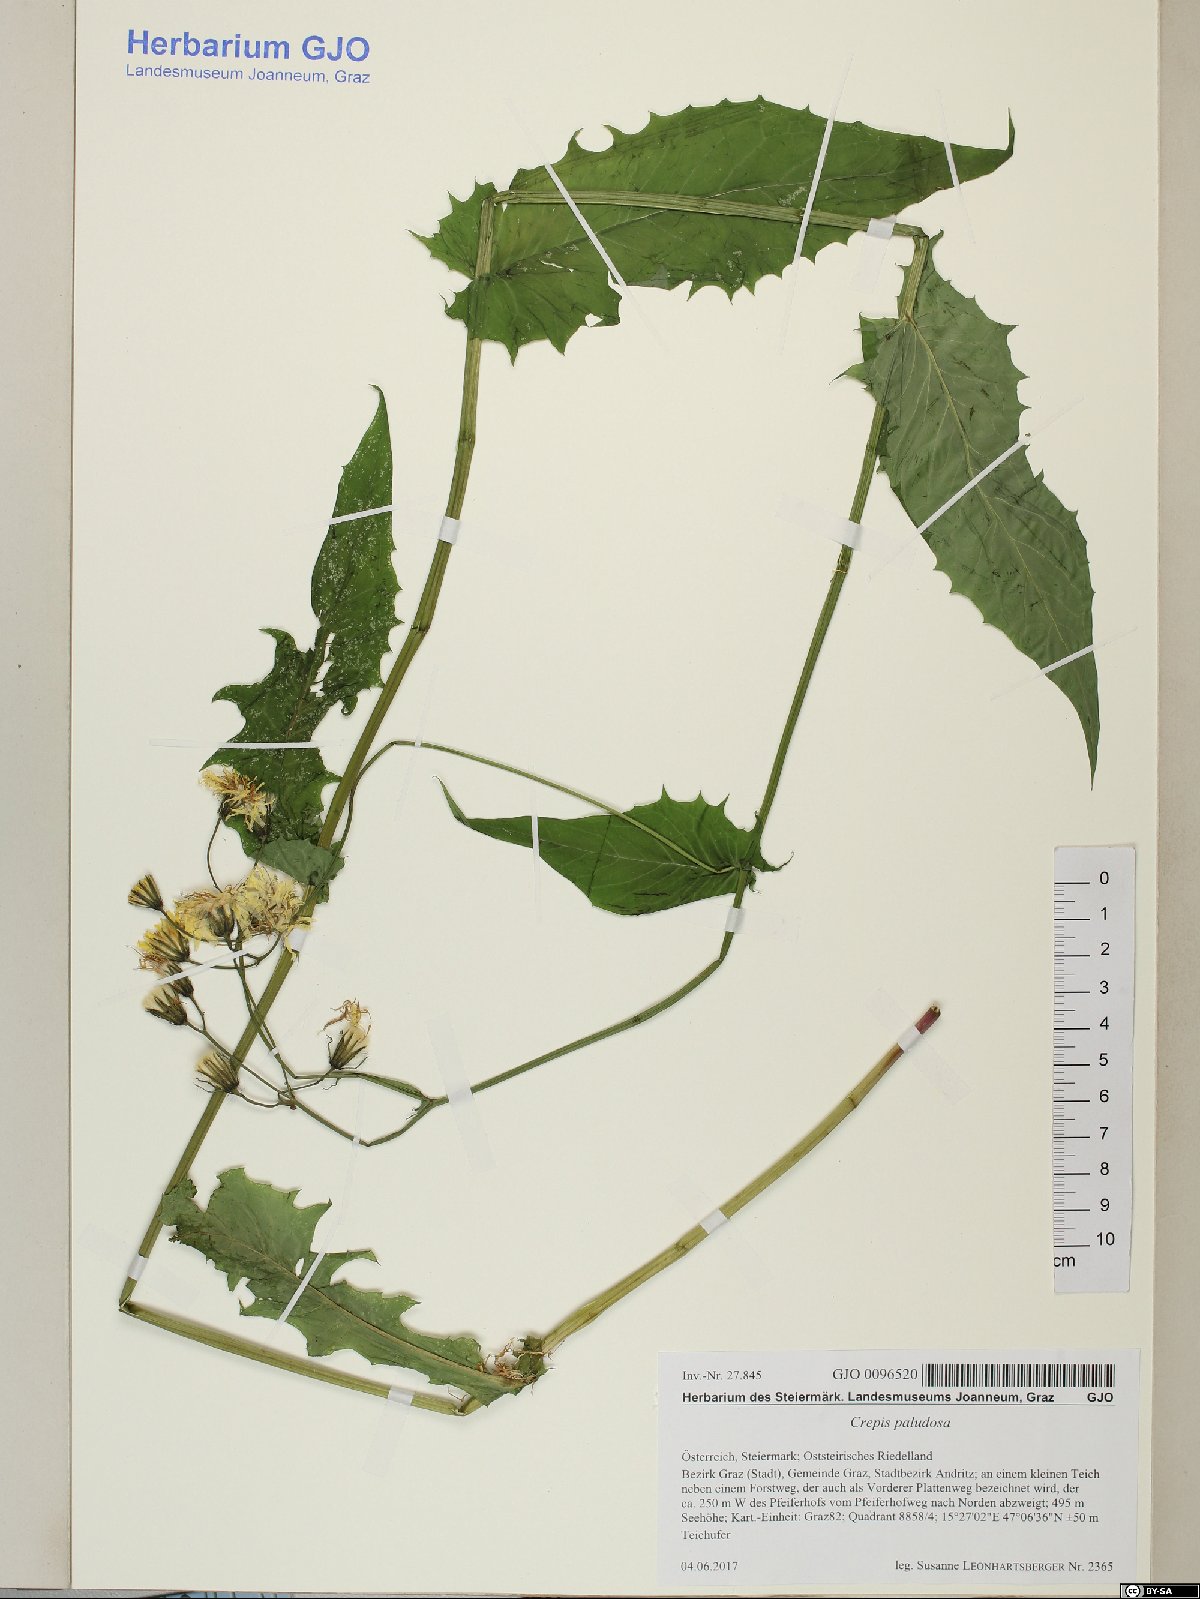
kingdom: Plantae
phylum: Tracheophyta
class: Magnoliopsida
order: Asterales
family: Asteraceae
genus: Crepis
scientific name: Crepis paludosa
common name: Marsh hawk's-beard
